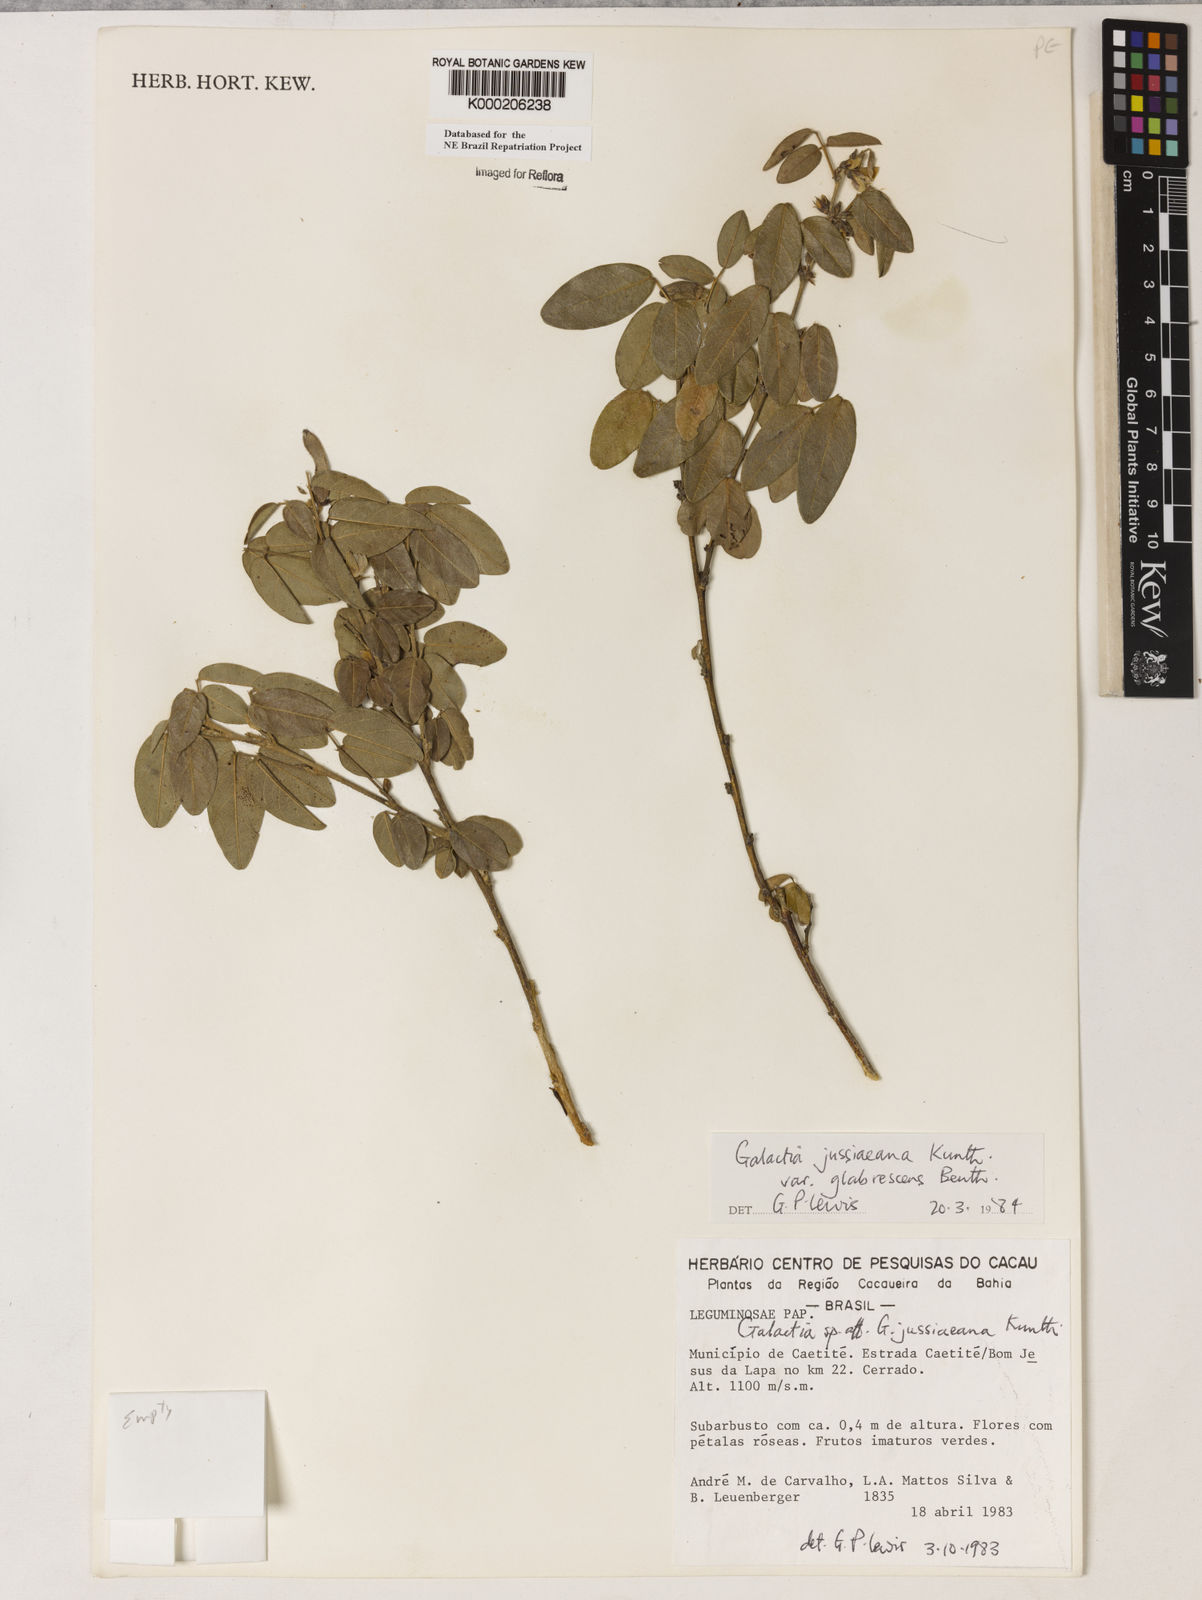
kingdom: Plantae
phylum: Tracheophyta
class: Magnoliopsida
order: Fabales
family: Fabaceae
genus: Galactia
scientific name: Galactia jussiaeana
